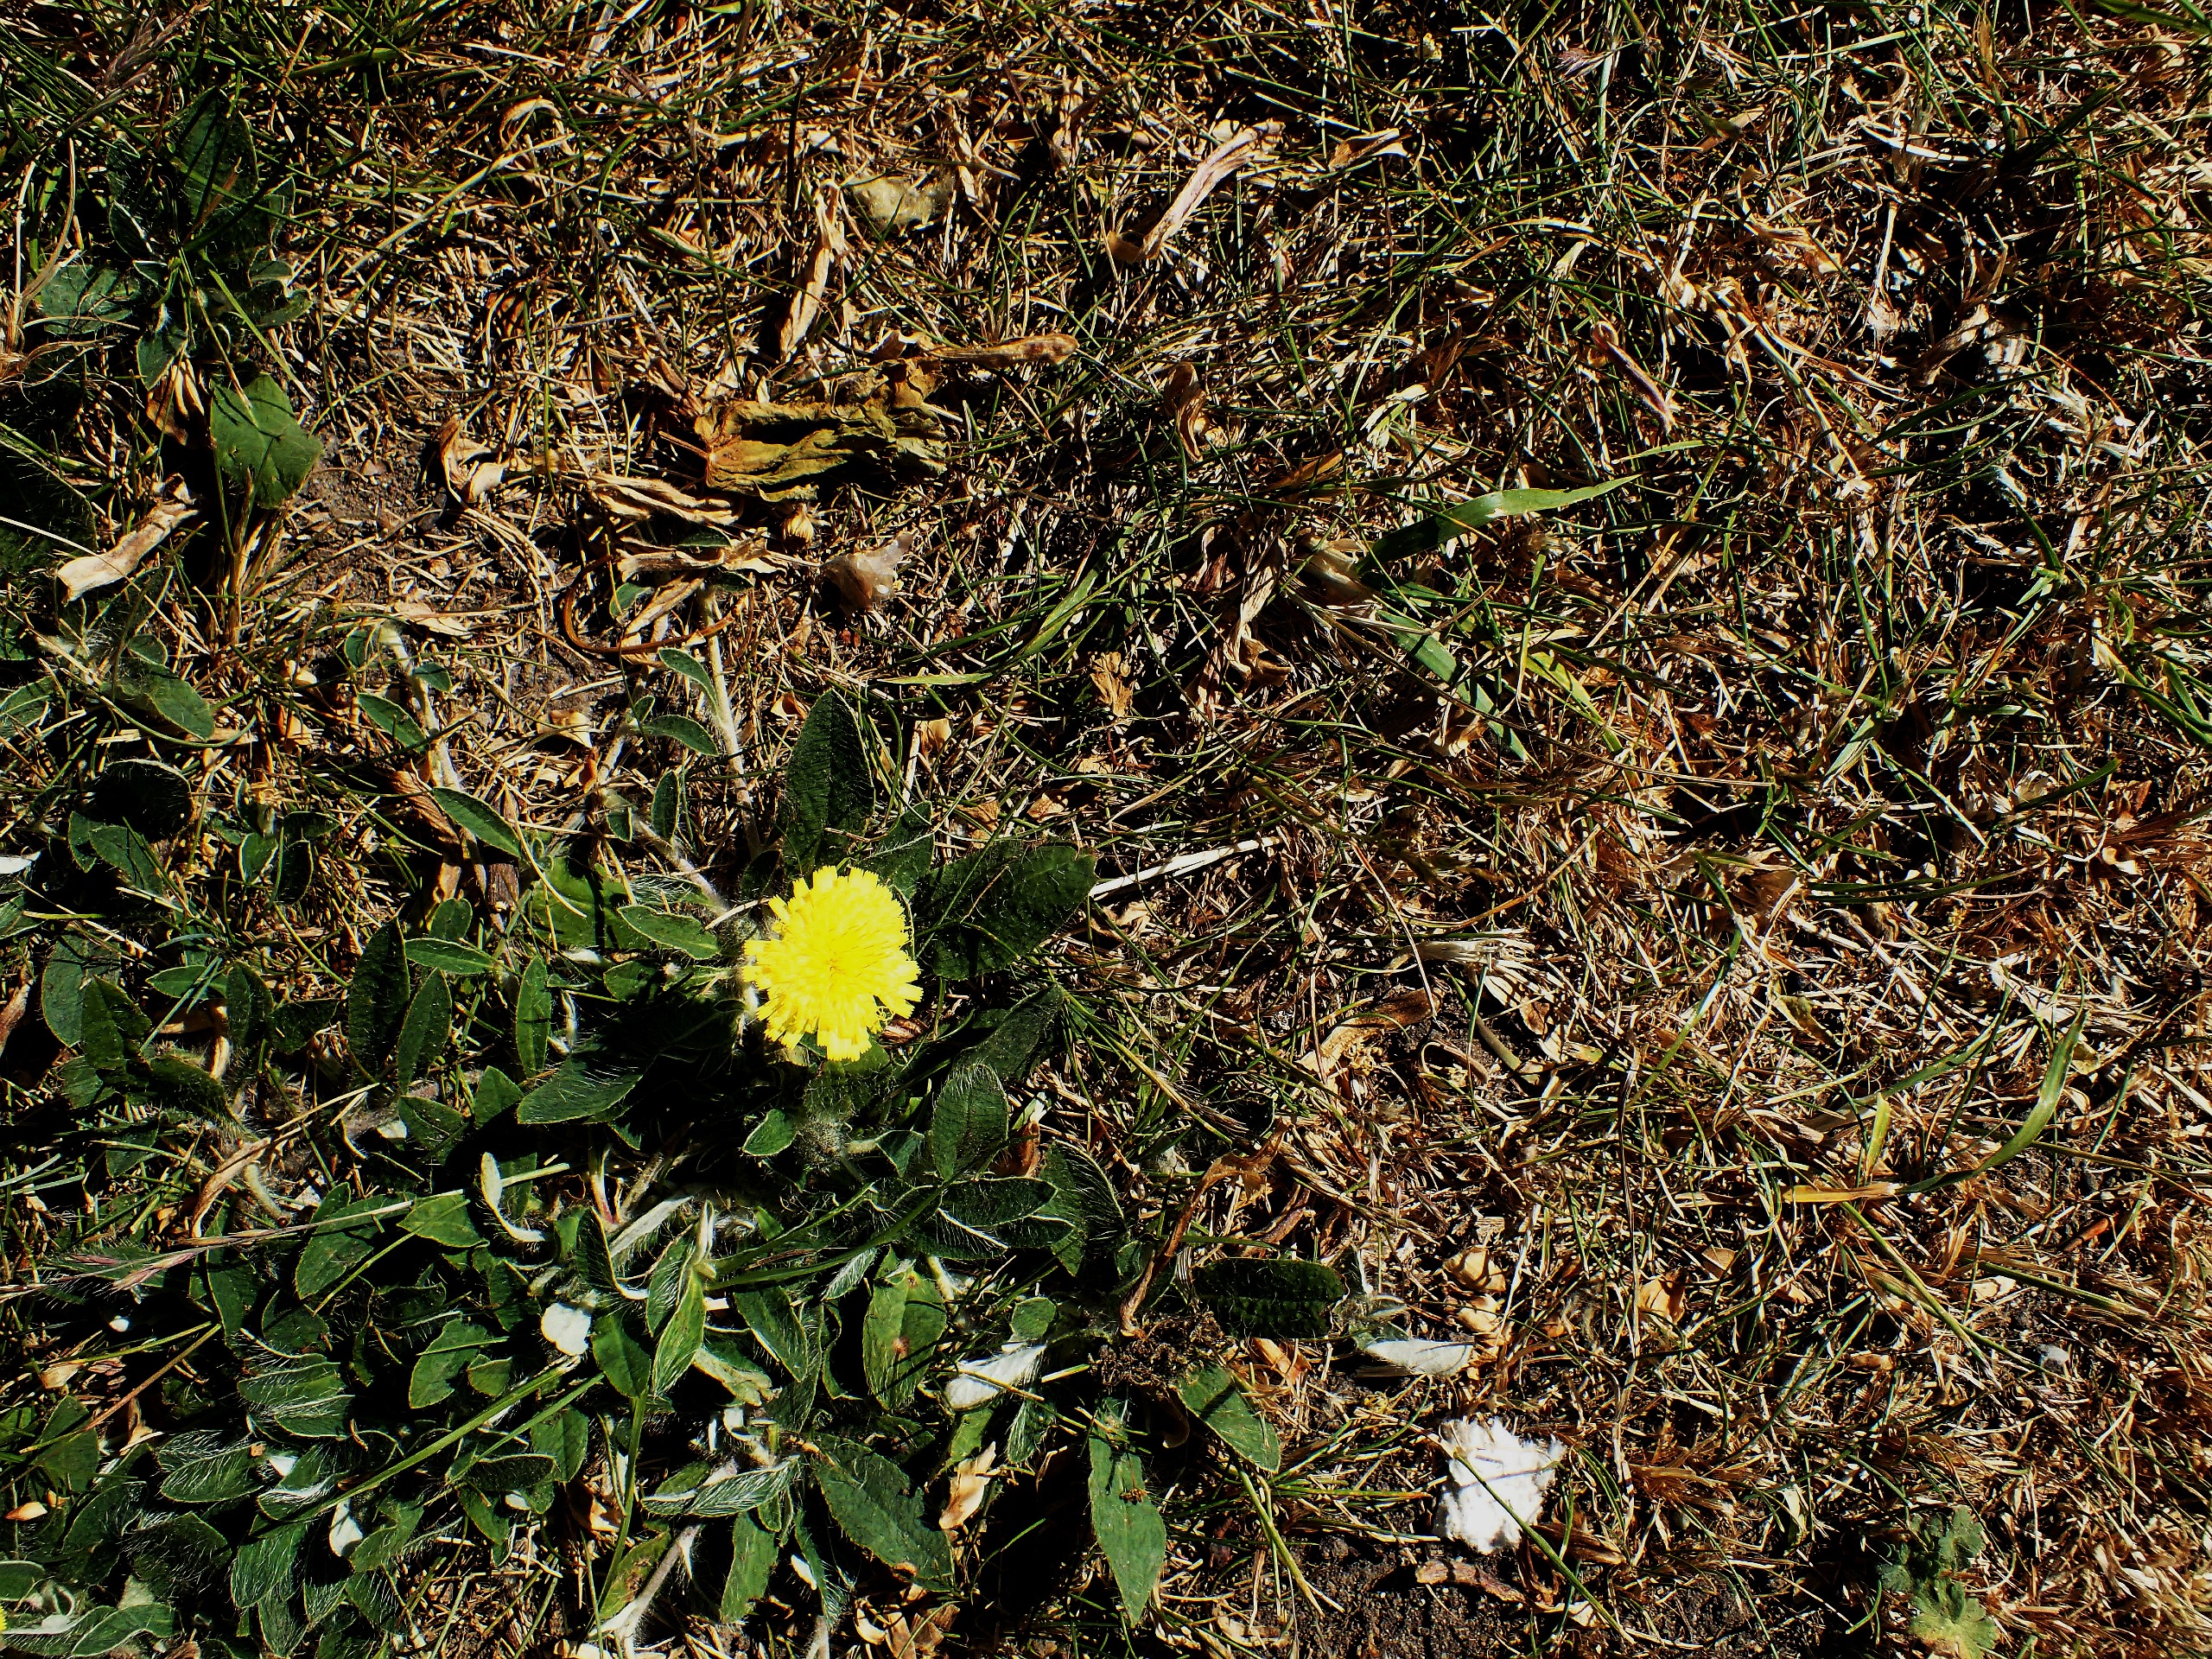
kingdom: Plantae
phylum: Tracheophyta
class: Magnoliopsida
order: Asterales
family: Asteraceae
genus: Pilosella
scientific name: Pilosella officinarum
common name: Håret høgeurt
